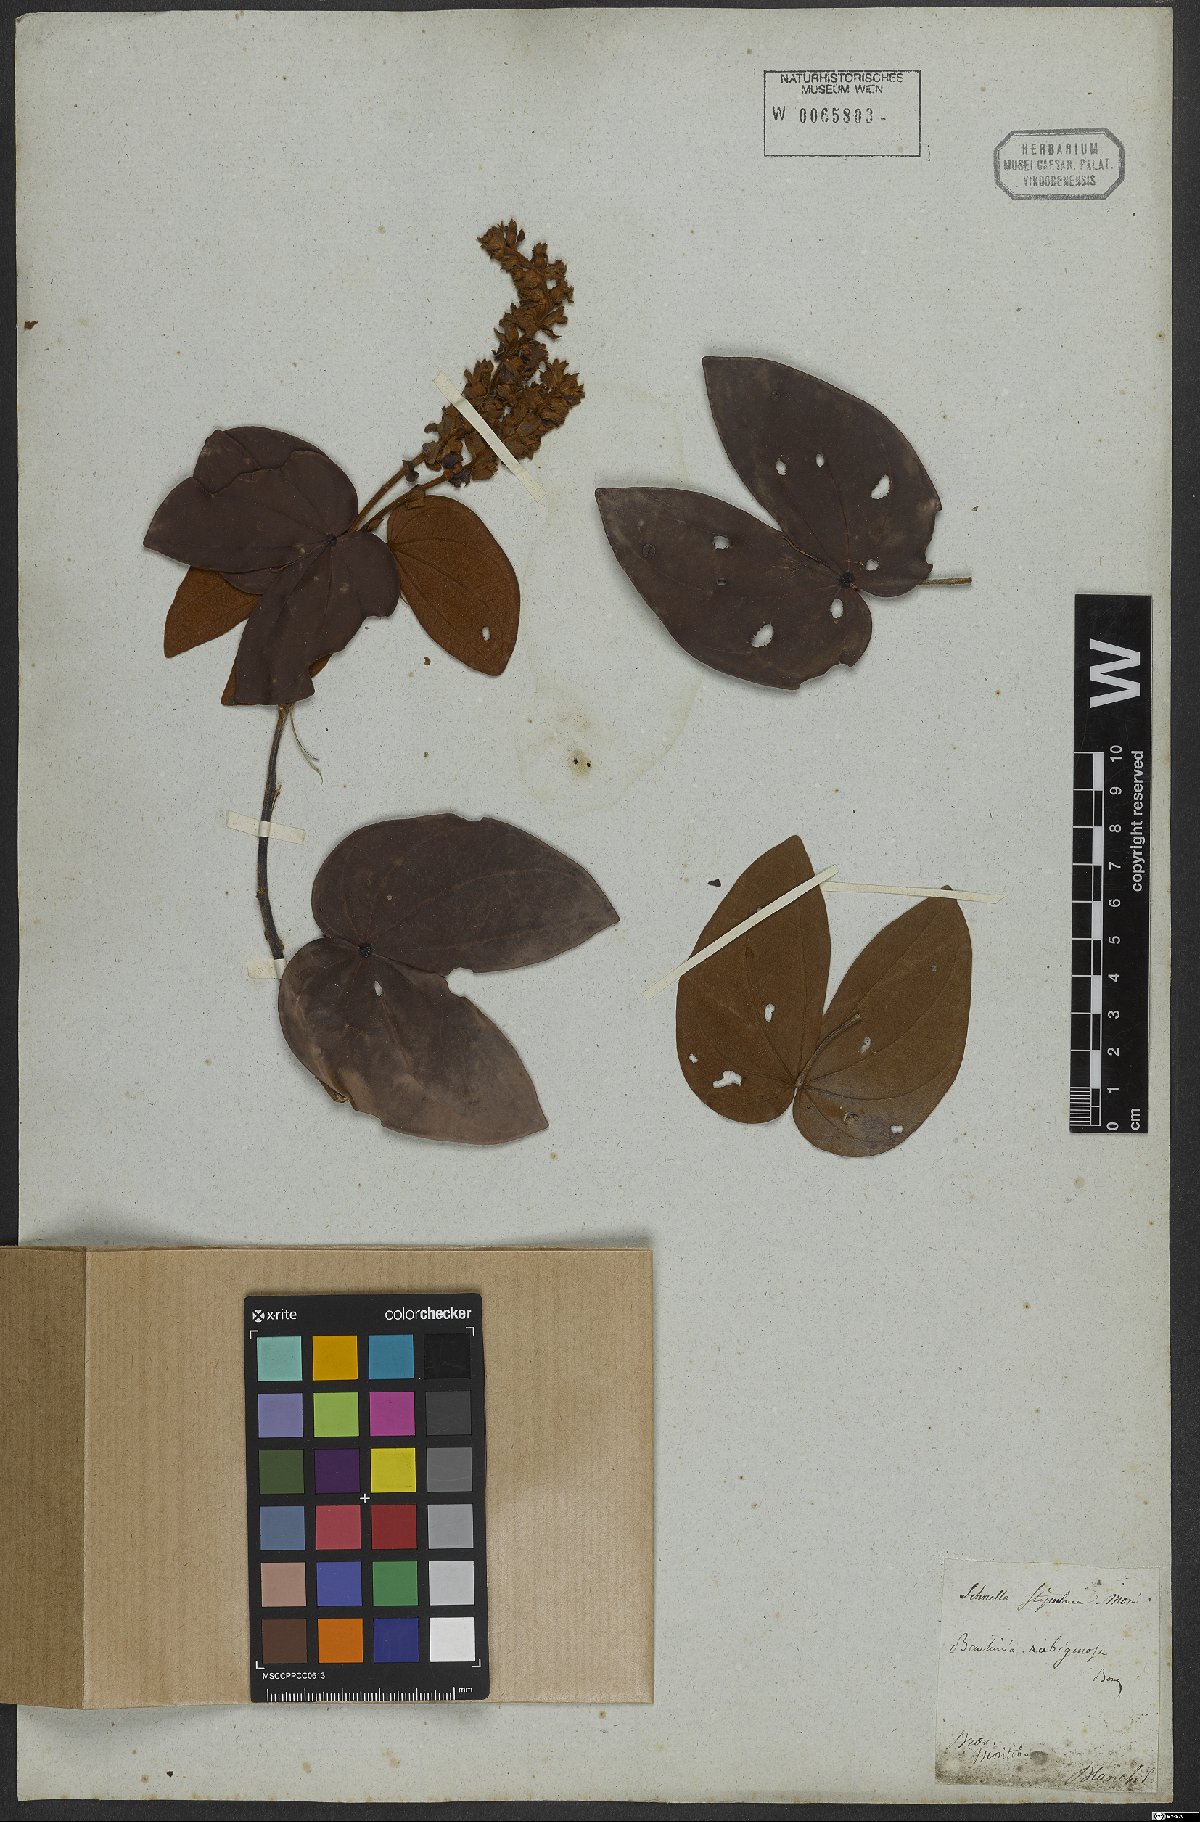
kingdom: Plantae
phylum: Tracheophyta
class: Magnoliopsida
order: Fabales
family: Fabaceae
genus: Schnella
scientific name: Schnella outimouta
